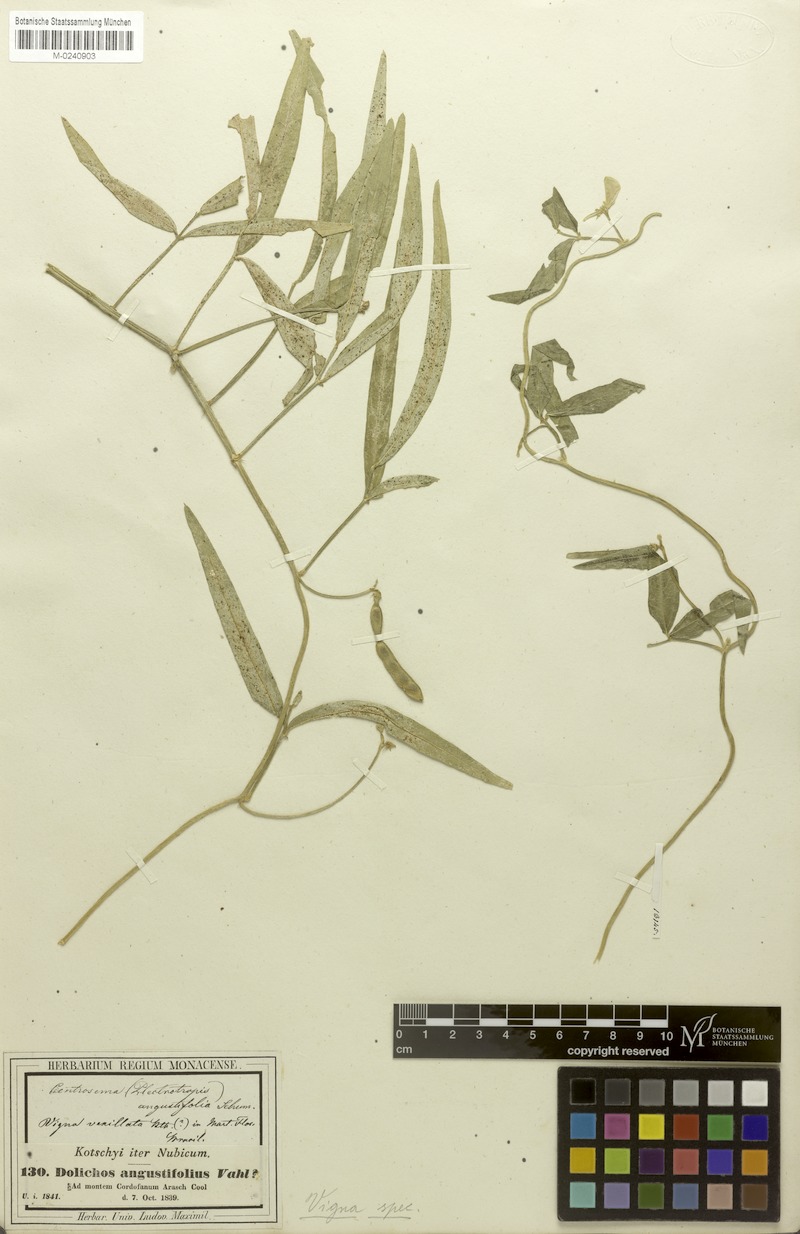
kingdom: Plantae
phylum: Tracheophyta
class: Magnoliopsida
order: Fabales
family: Fabaceae
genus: Vigna
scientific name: Vigna unguiculata
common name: Cowpea
